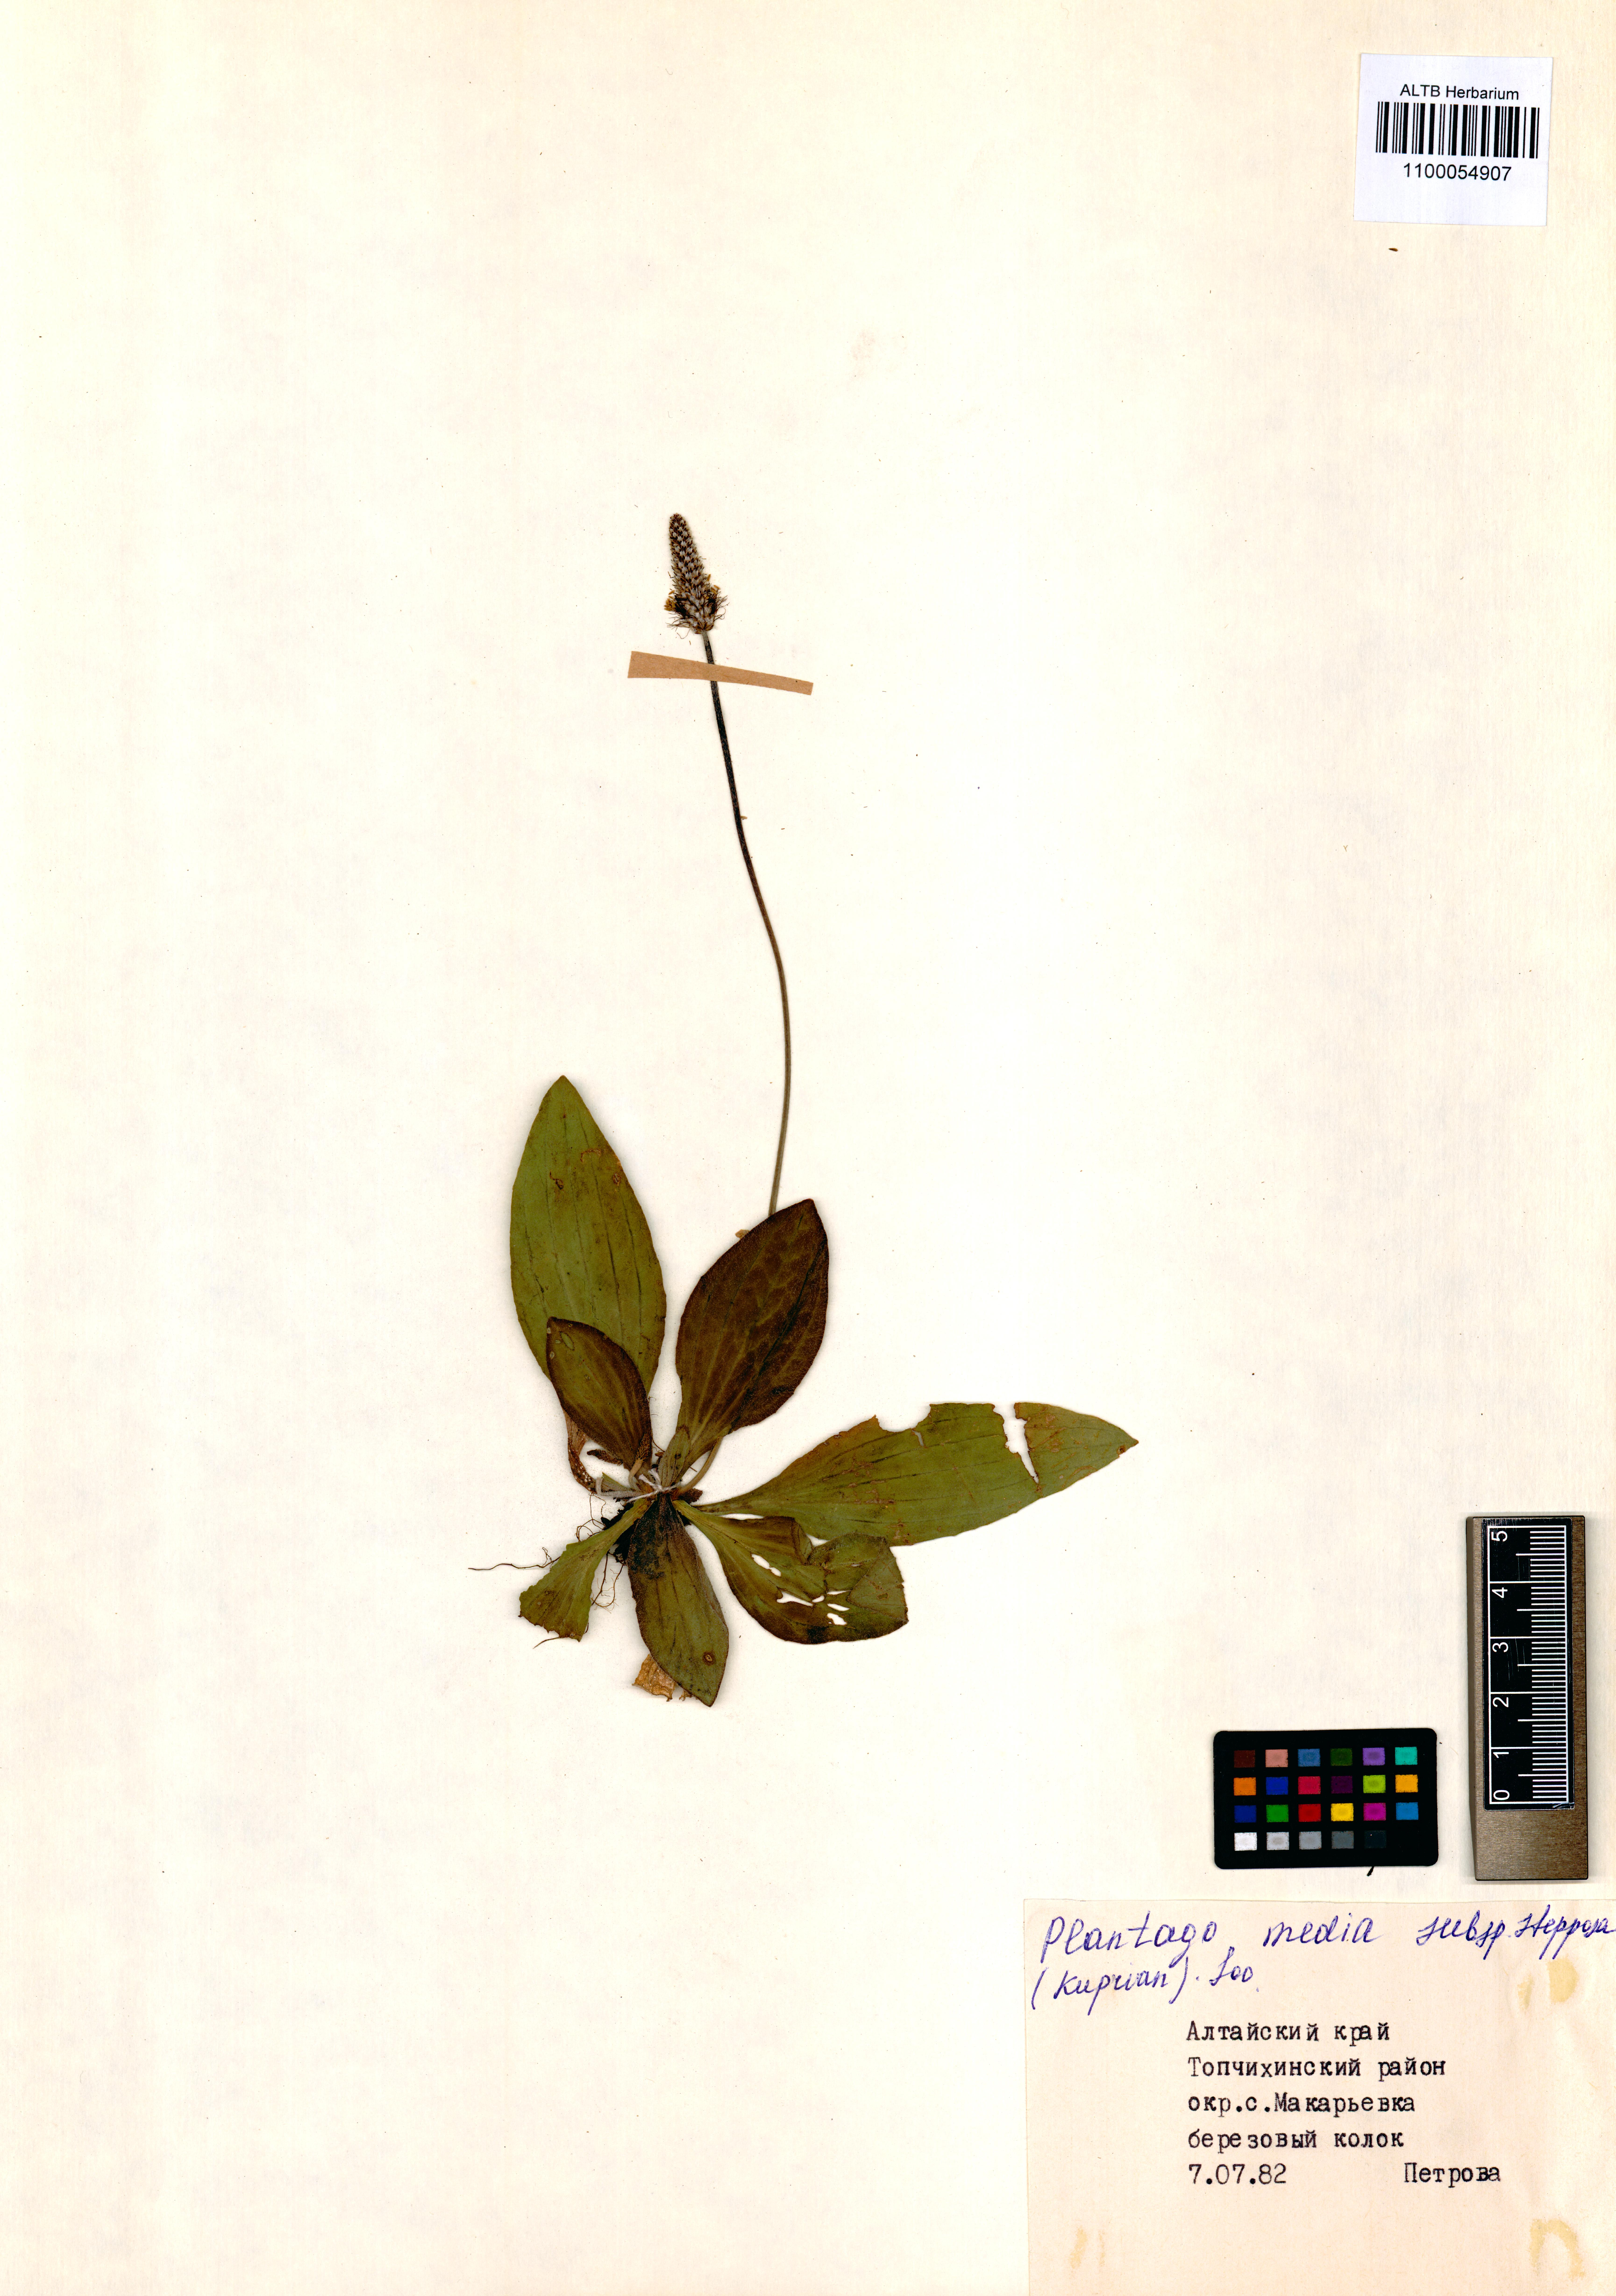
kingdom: Plantae
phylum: Tracheophyta
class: Magnoliopsida
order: Lamiales
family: Plantaginaceae
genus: Plantago
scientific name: Plantago media
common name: Hoary plantain
